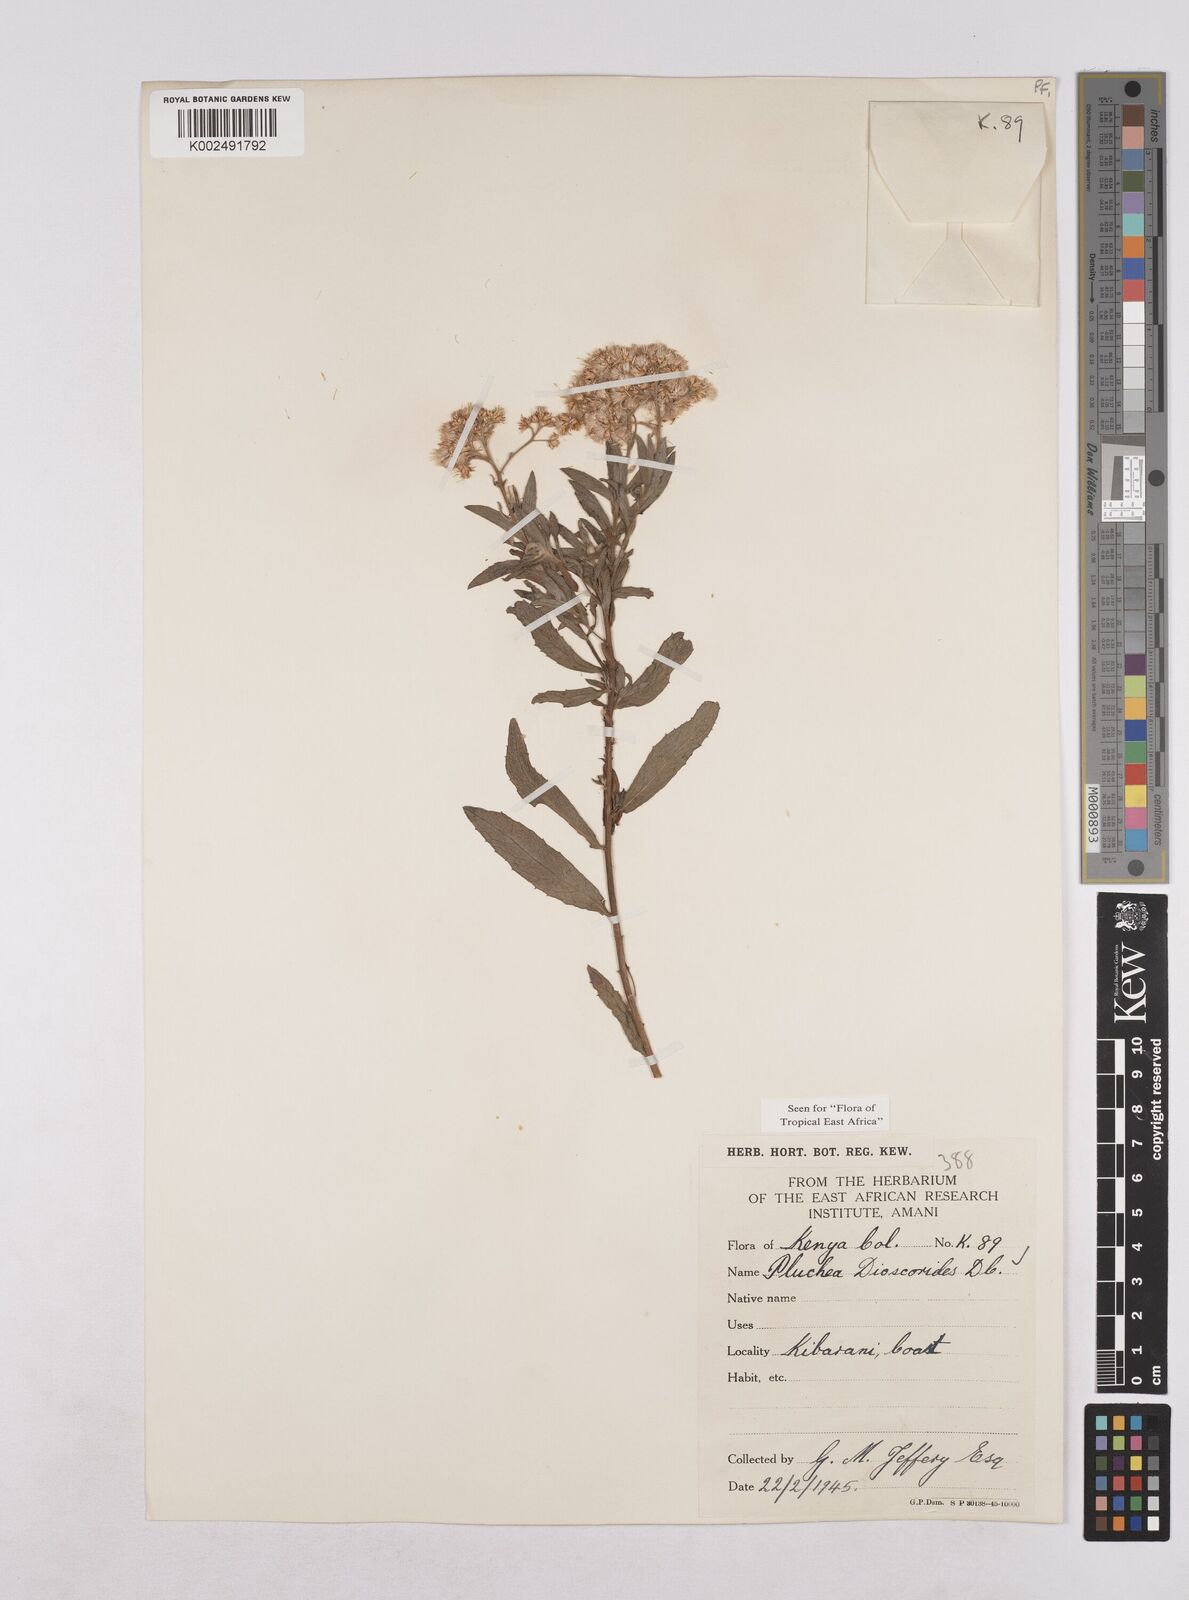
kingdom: Plantae
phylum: Tracheophyta
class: Magnoliopsida
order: Asterales
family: Asteraceae
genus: Pluchea
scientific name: Pluchea dioscoridis
